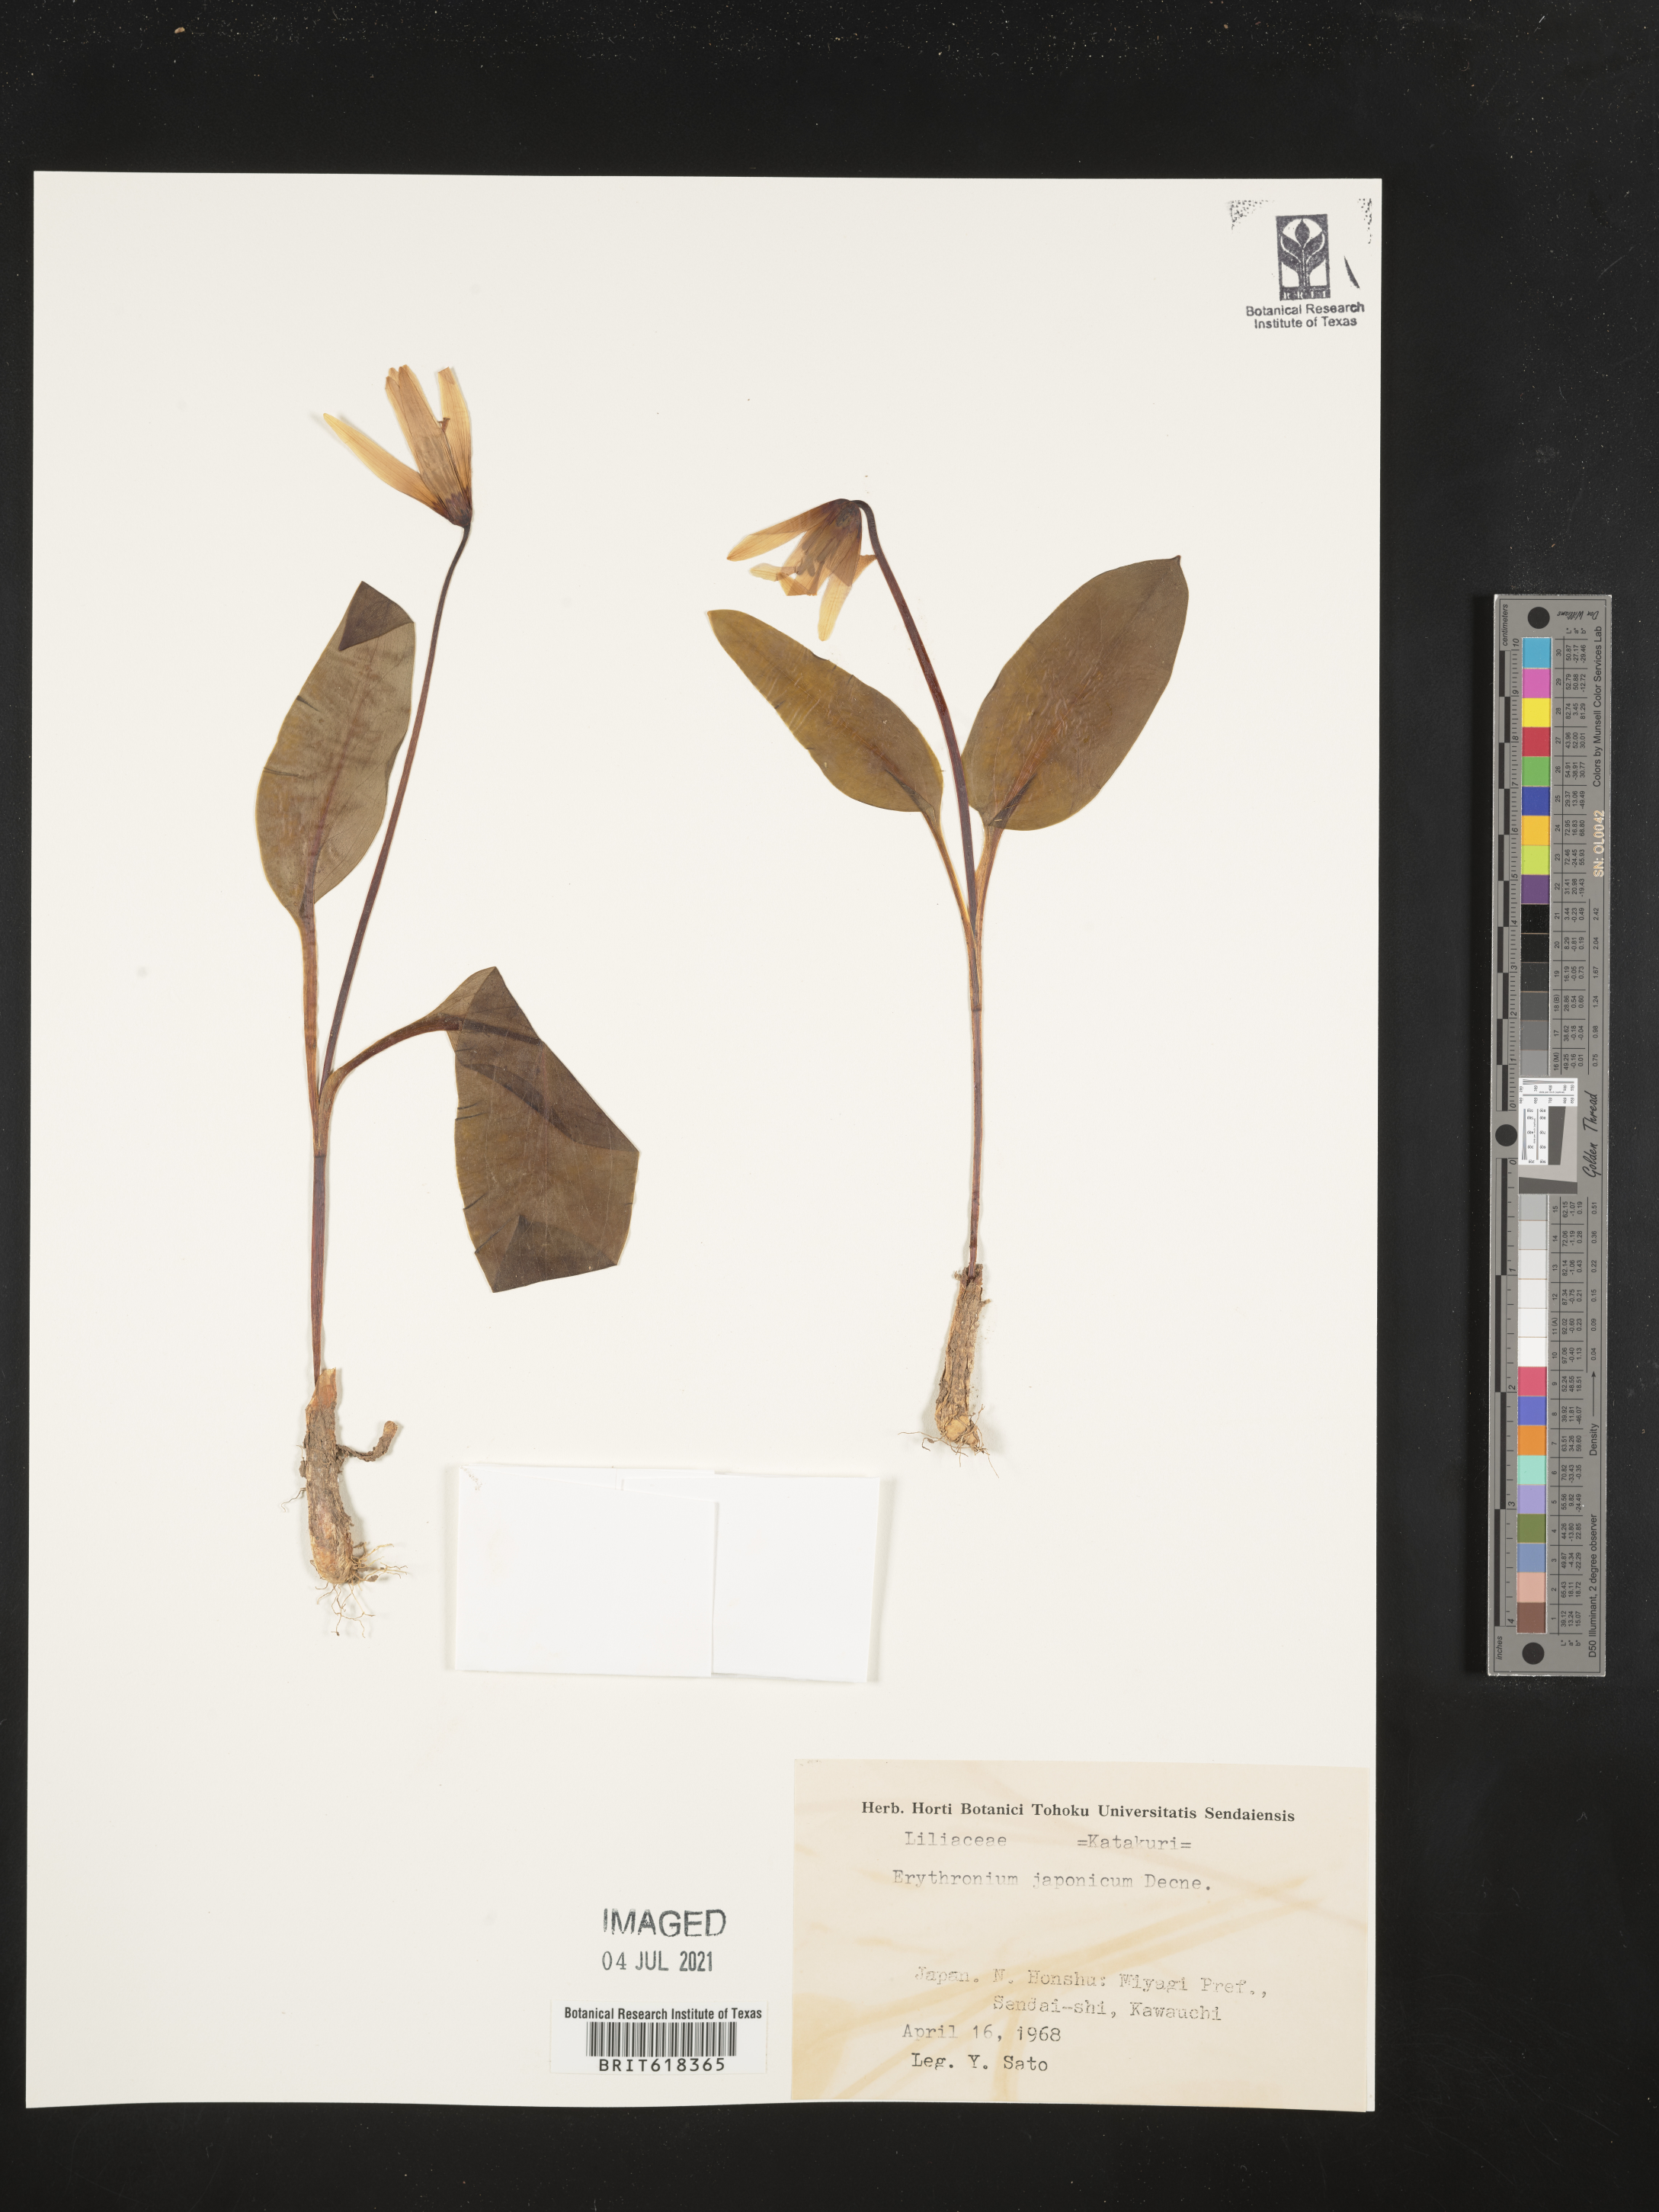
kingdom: Plantae
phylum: Tracheophyta
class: Liliopsida
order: Liliales
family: Liliaceae
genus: Erythronium
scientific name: Erythronium japonicum
